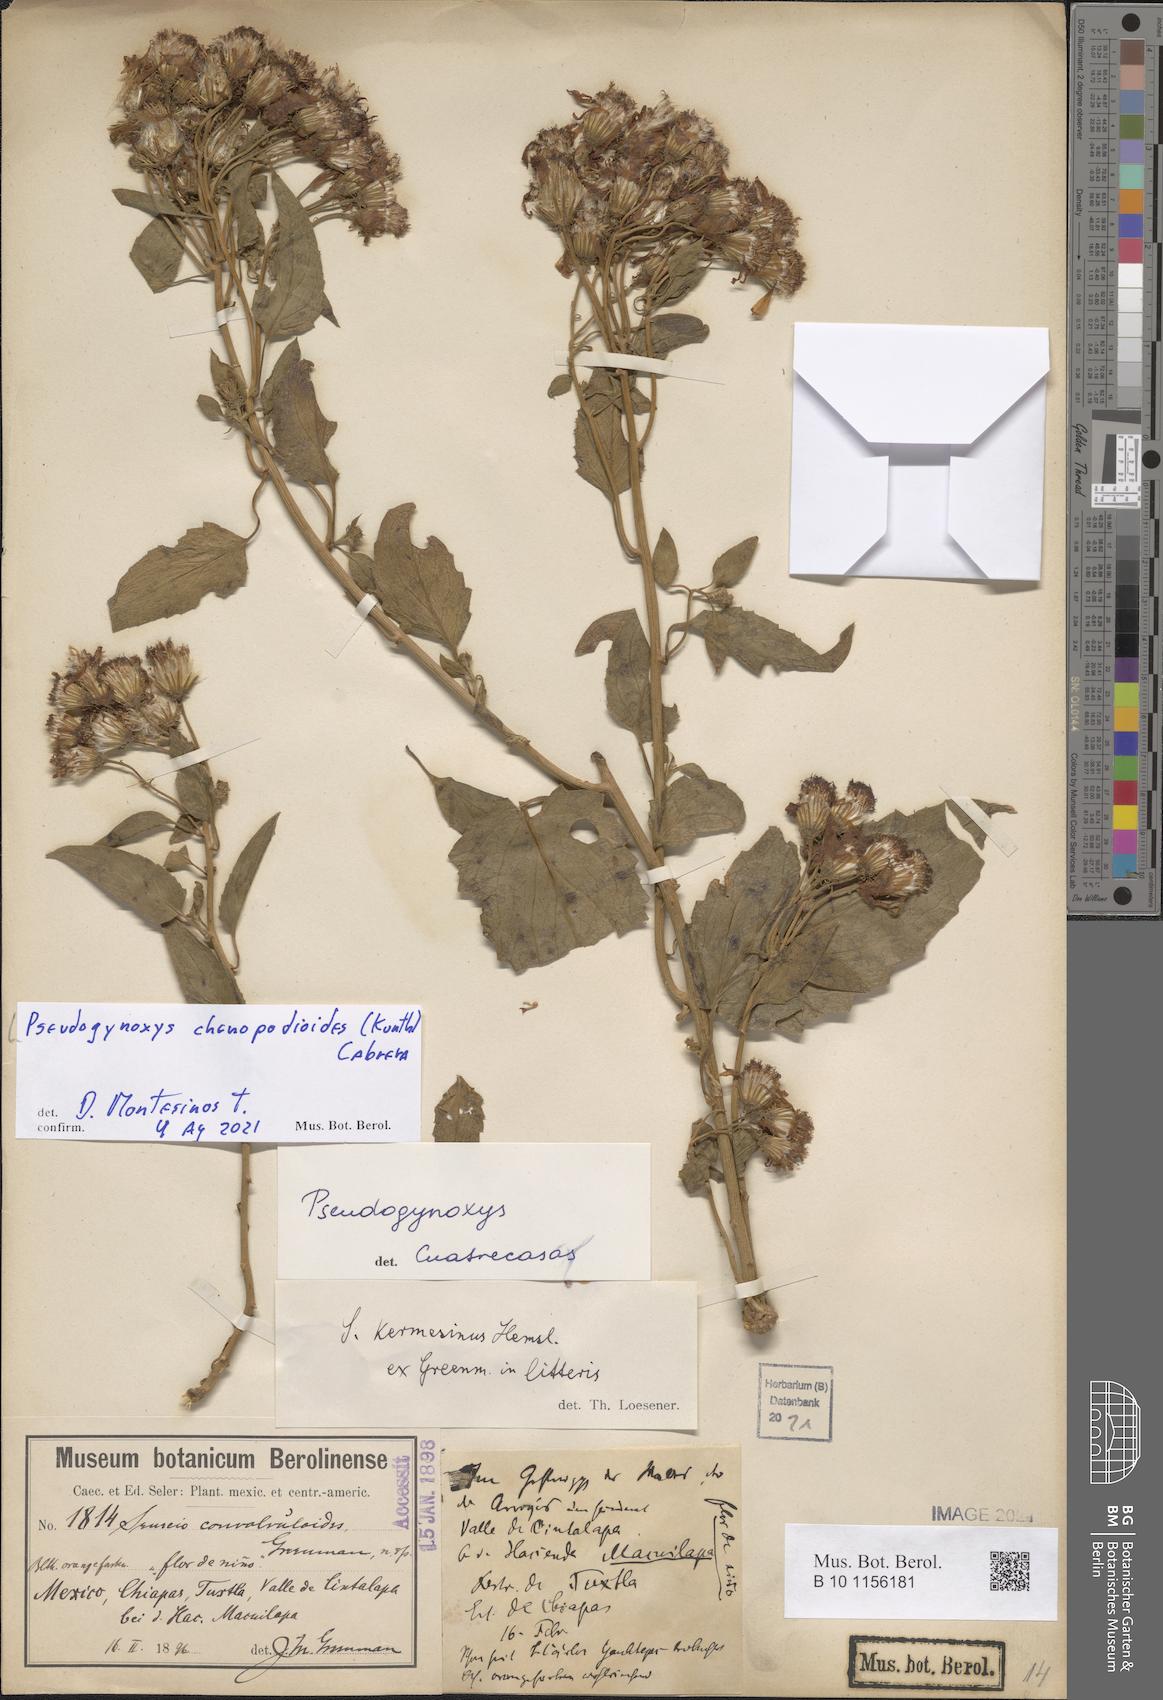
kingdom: Plantae
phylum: Tracheophyta
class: Magnoliopsida
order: Asterales
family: Asteraceae
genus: Pseudogynoxys
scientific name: Pseudogynoxys chenopodioides
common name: Mexican flamevine
